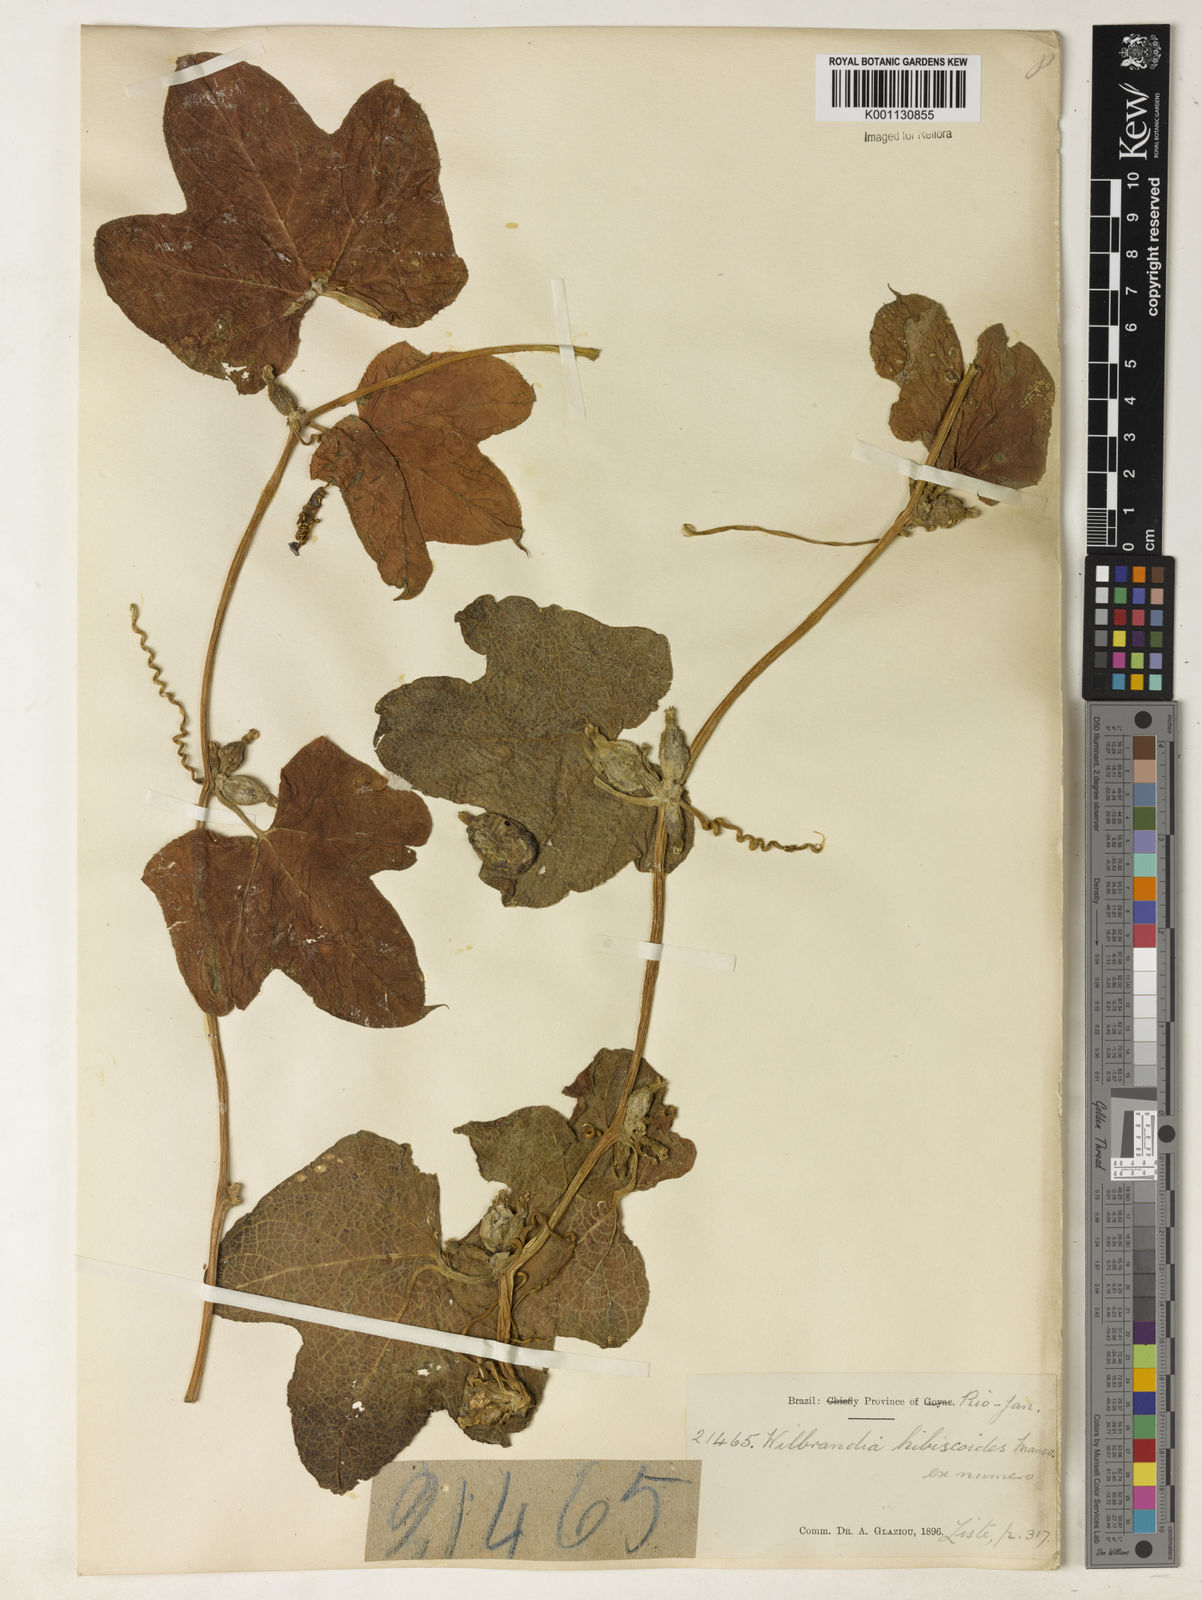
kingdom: Plantae
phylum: Tracheophyta
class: Magnoliopsida
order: Cucurbitales
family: Cucurbitaceae
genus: Wilbrandia
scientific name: Wilbrandia hibiscoides
